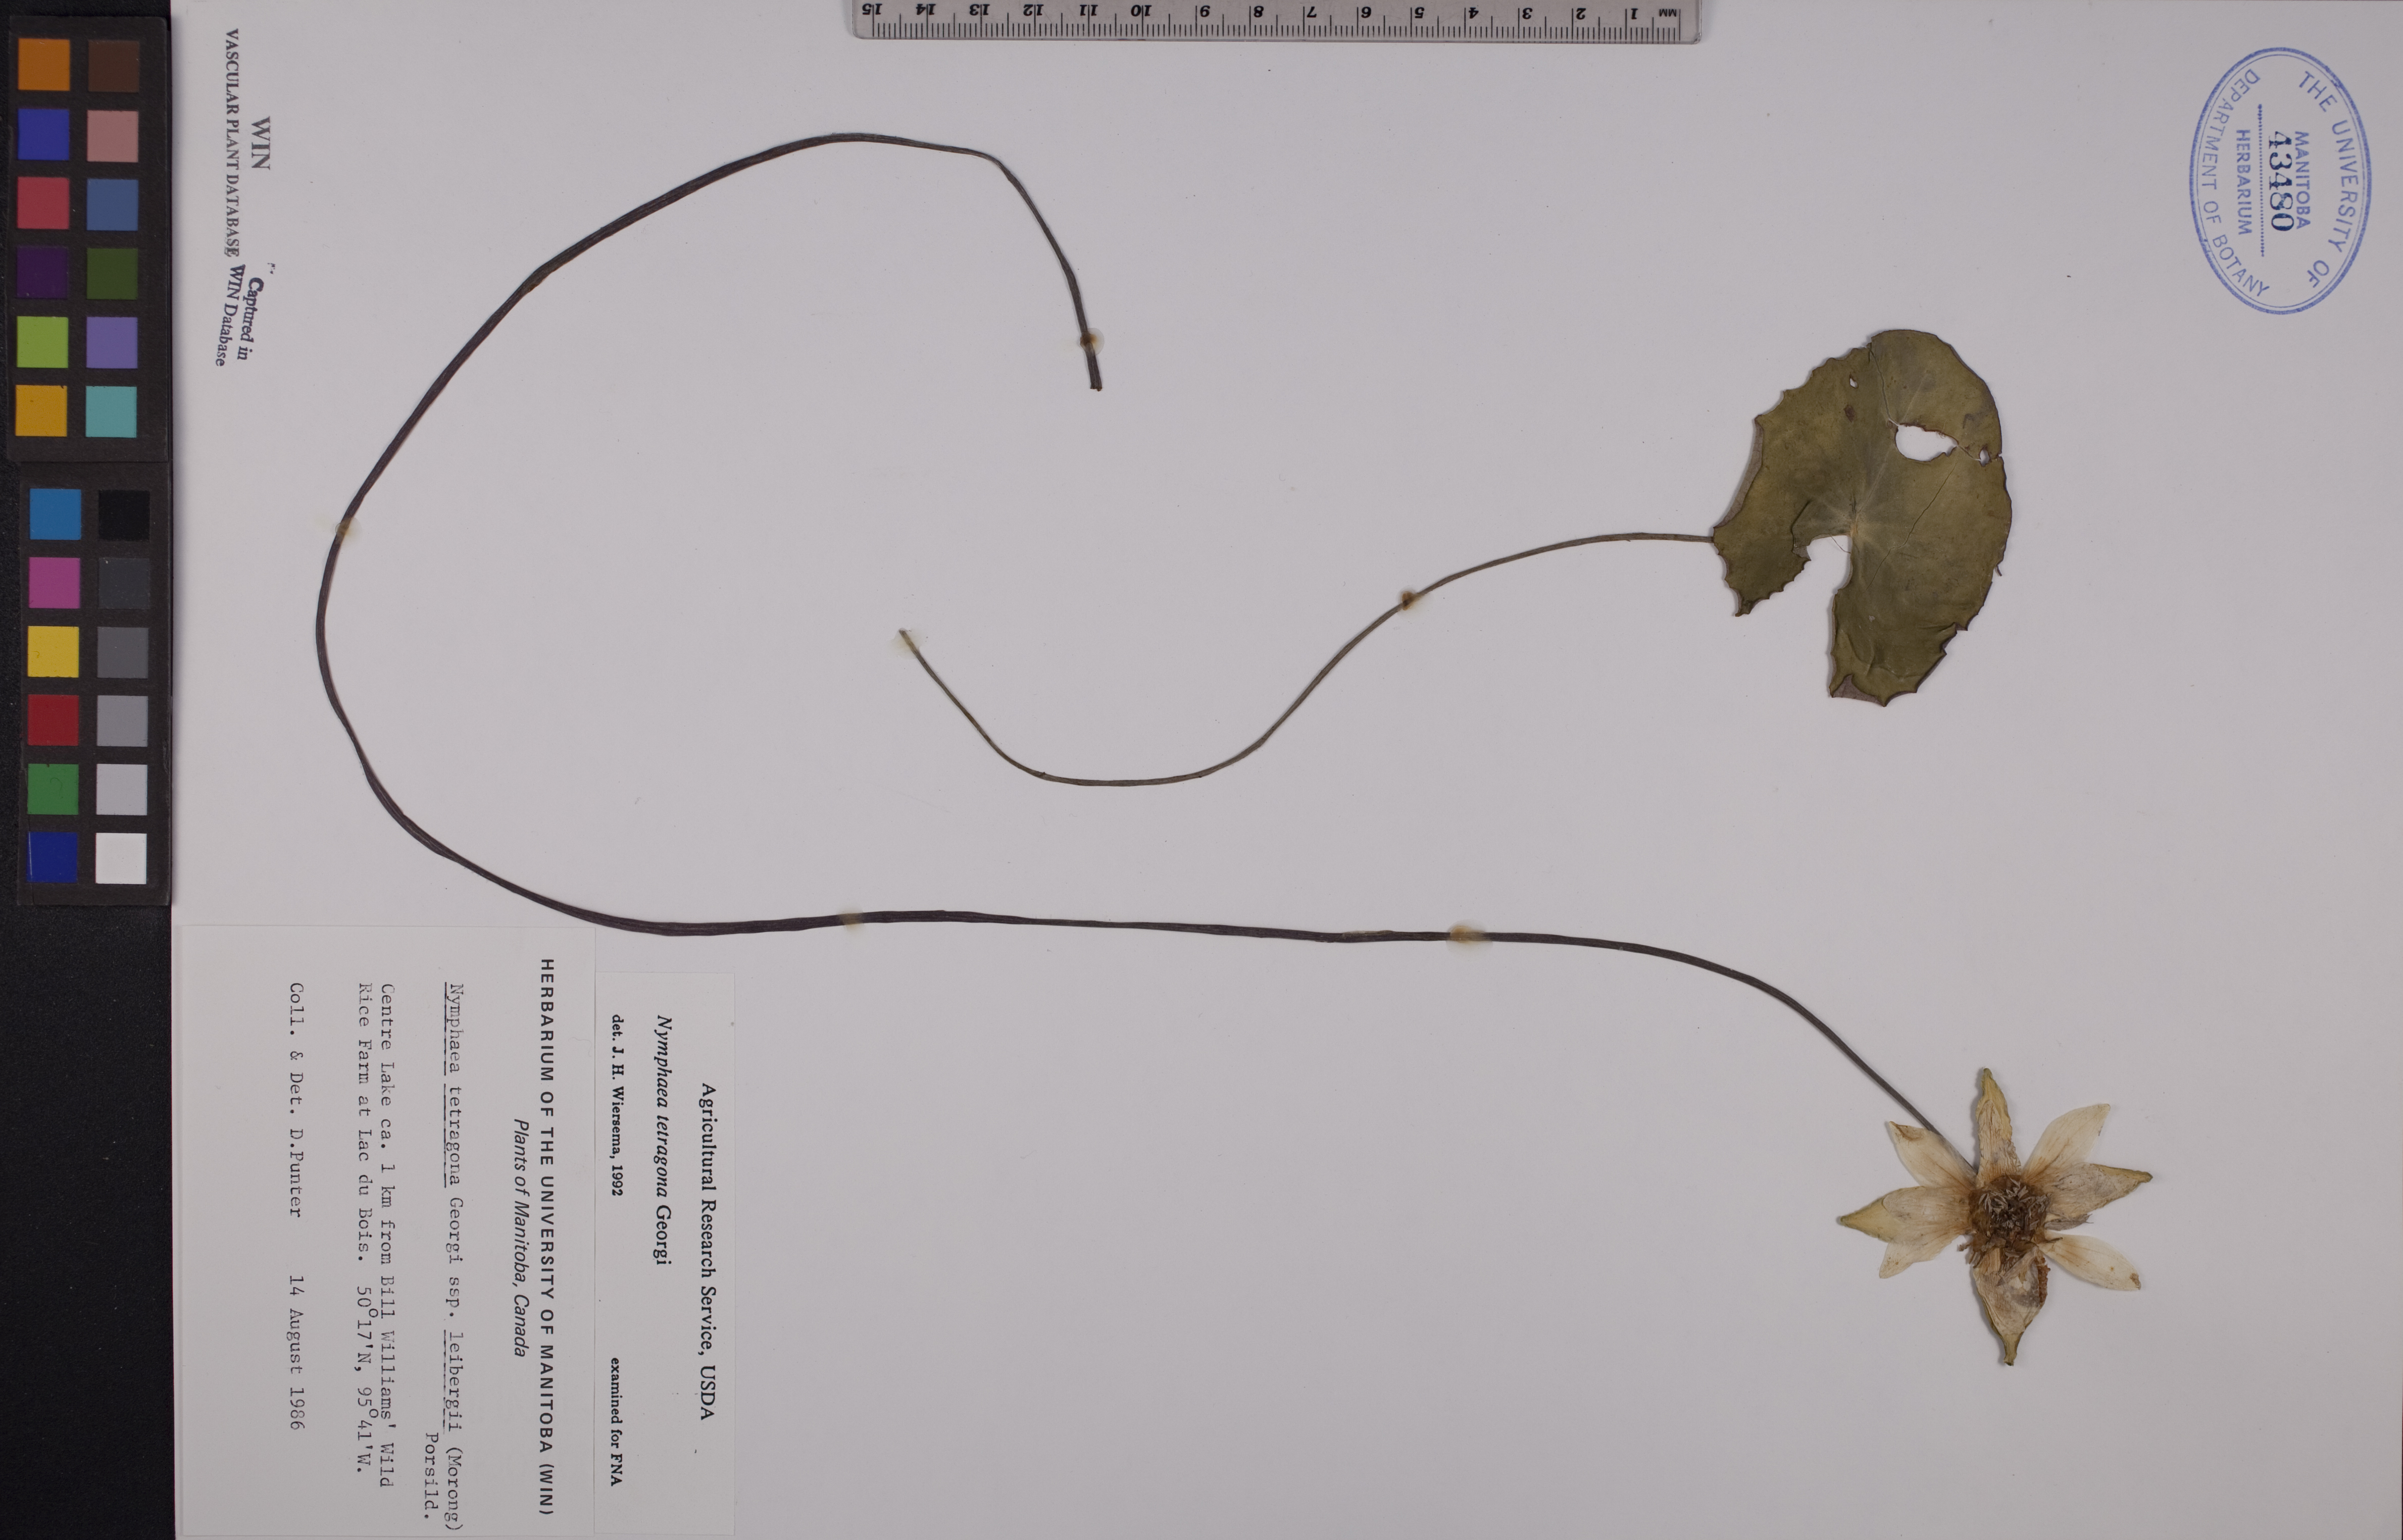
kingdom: Plantae
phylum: Tracheophyta
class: Magnoliopsida
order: Nymphaeales
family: Nymphaeaceae
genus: Nymphaea
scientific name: Nymphaea tetragona
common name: Pygmy water-lily
